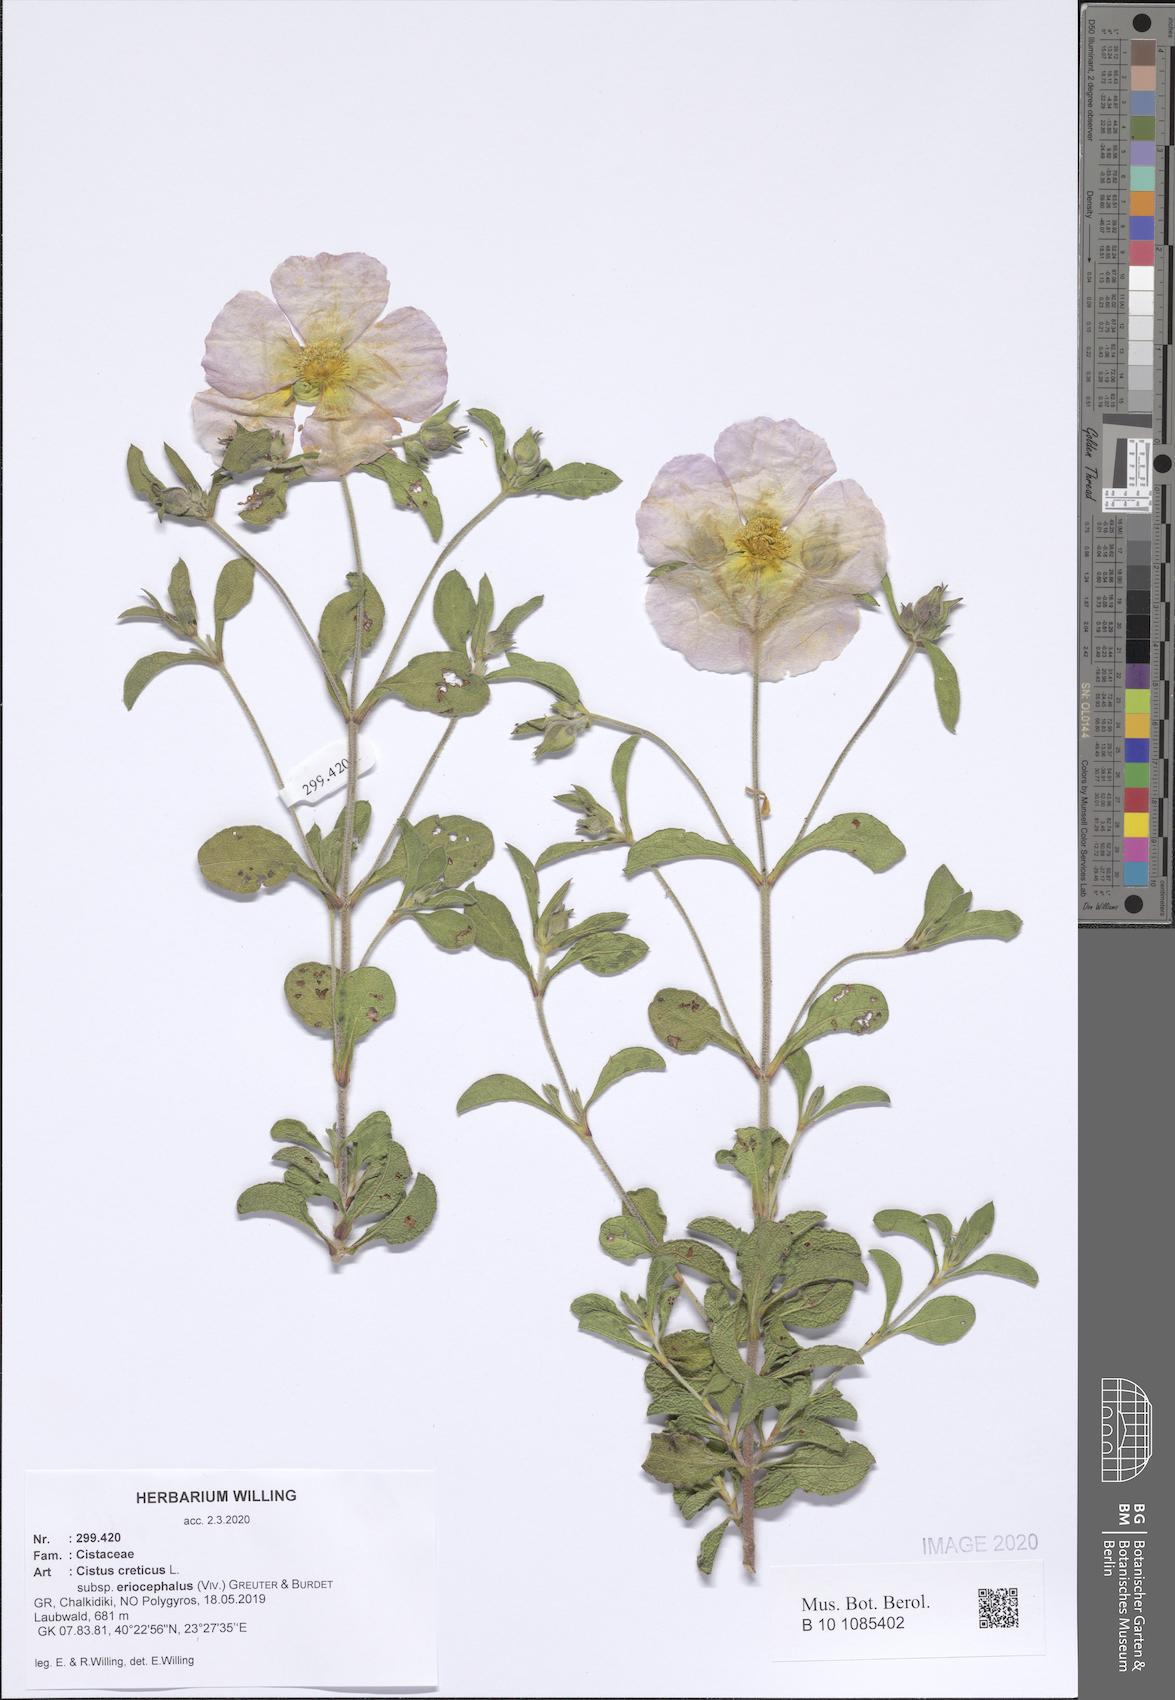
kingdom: Plantae
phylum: Tracheophyta
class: Magnoliopsida
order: Malvales
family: Cistaceae
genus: Cistus
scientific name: Cistus tauricus
